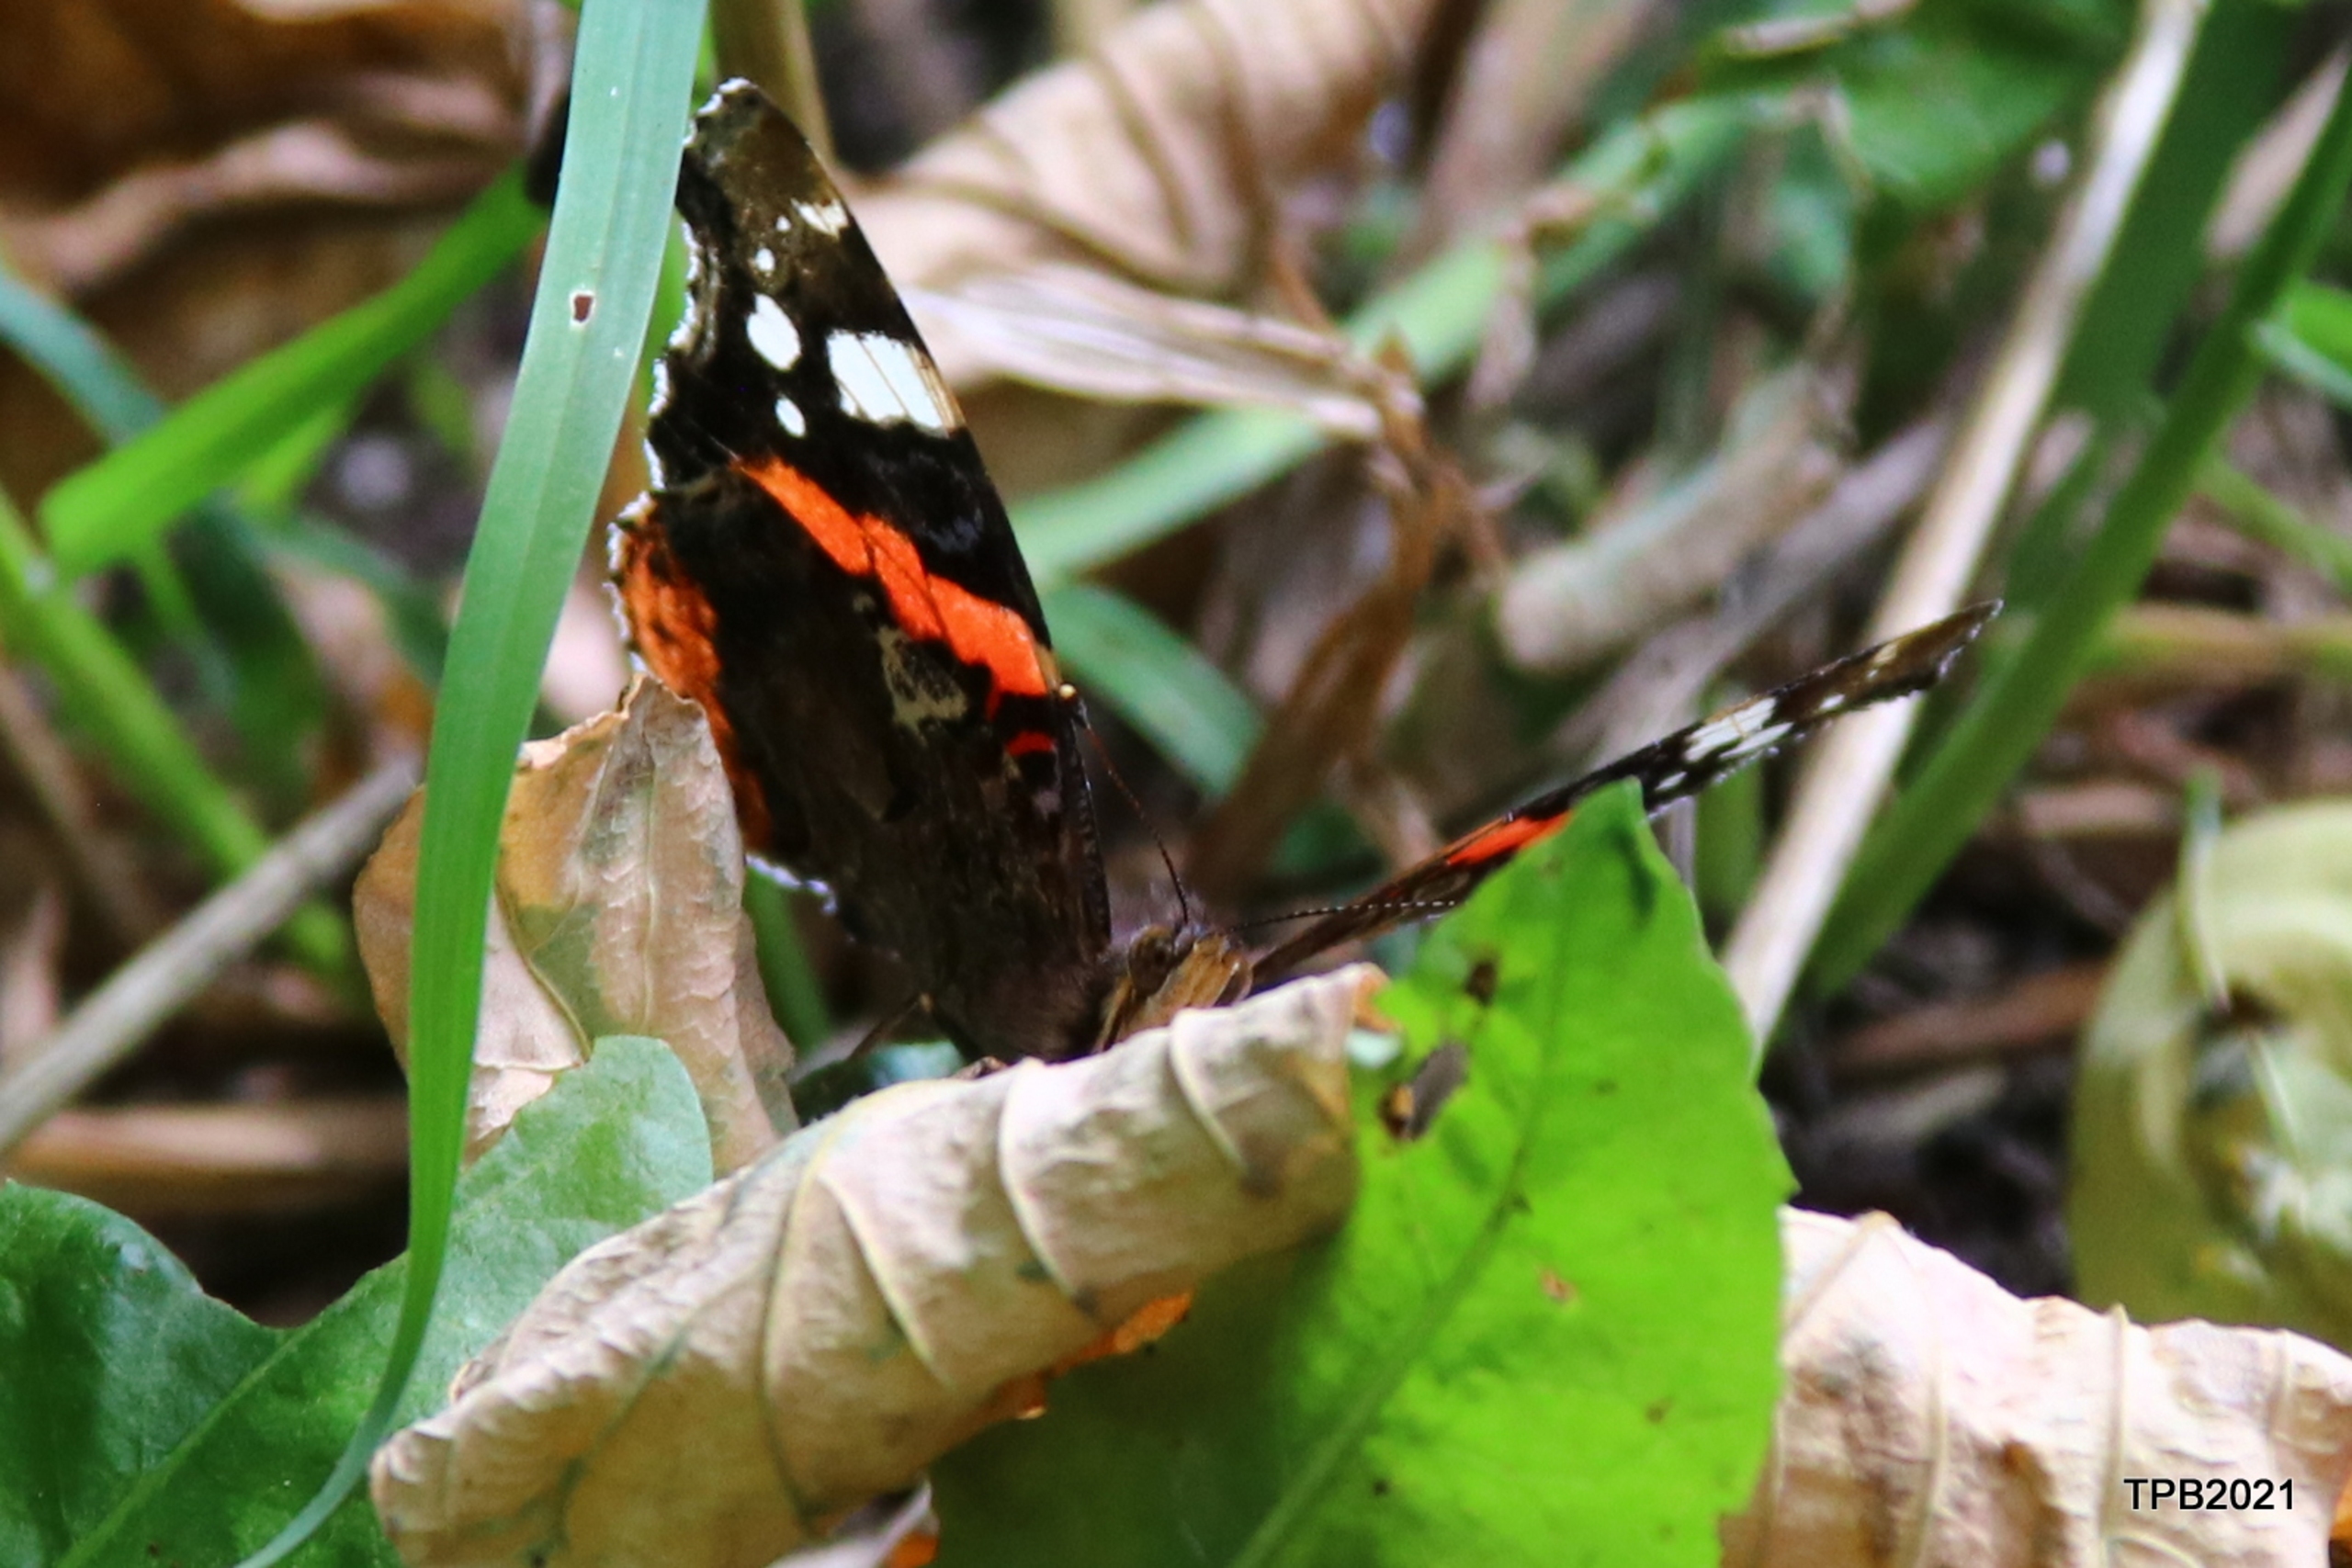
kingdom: Animalia
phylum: Arthropoda
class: Insecta
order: Lepidoptera
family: Nymphalidae
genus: Vanessa
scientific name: Vanessa atalanta
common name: Admiral
